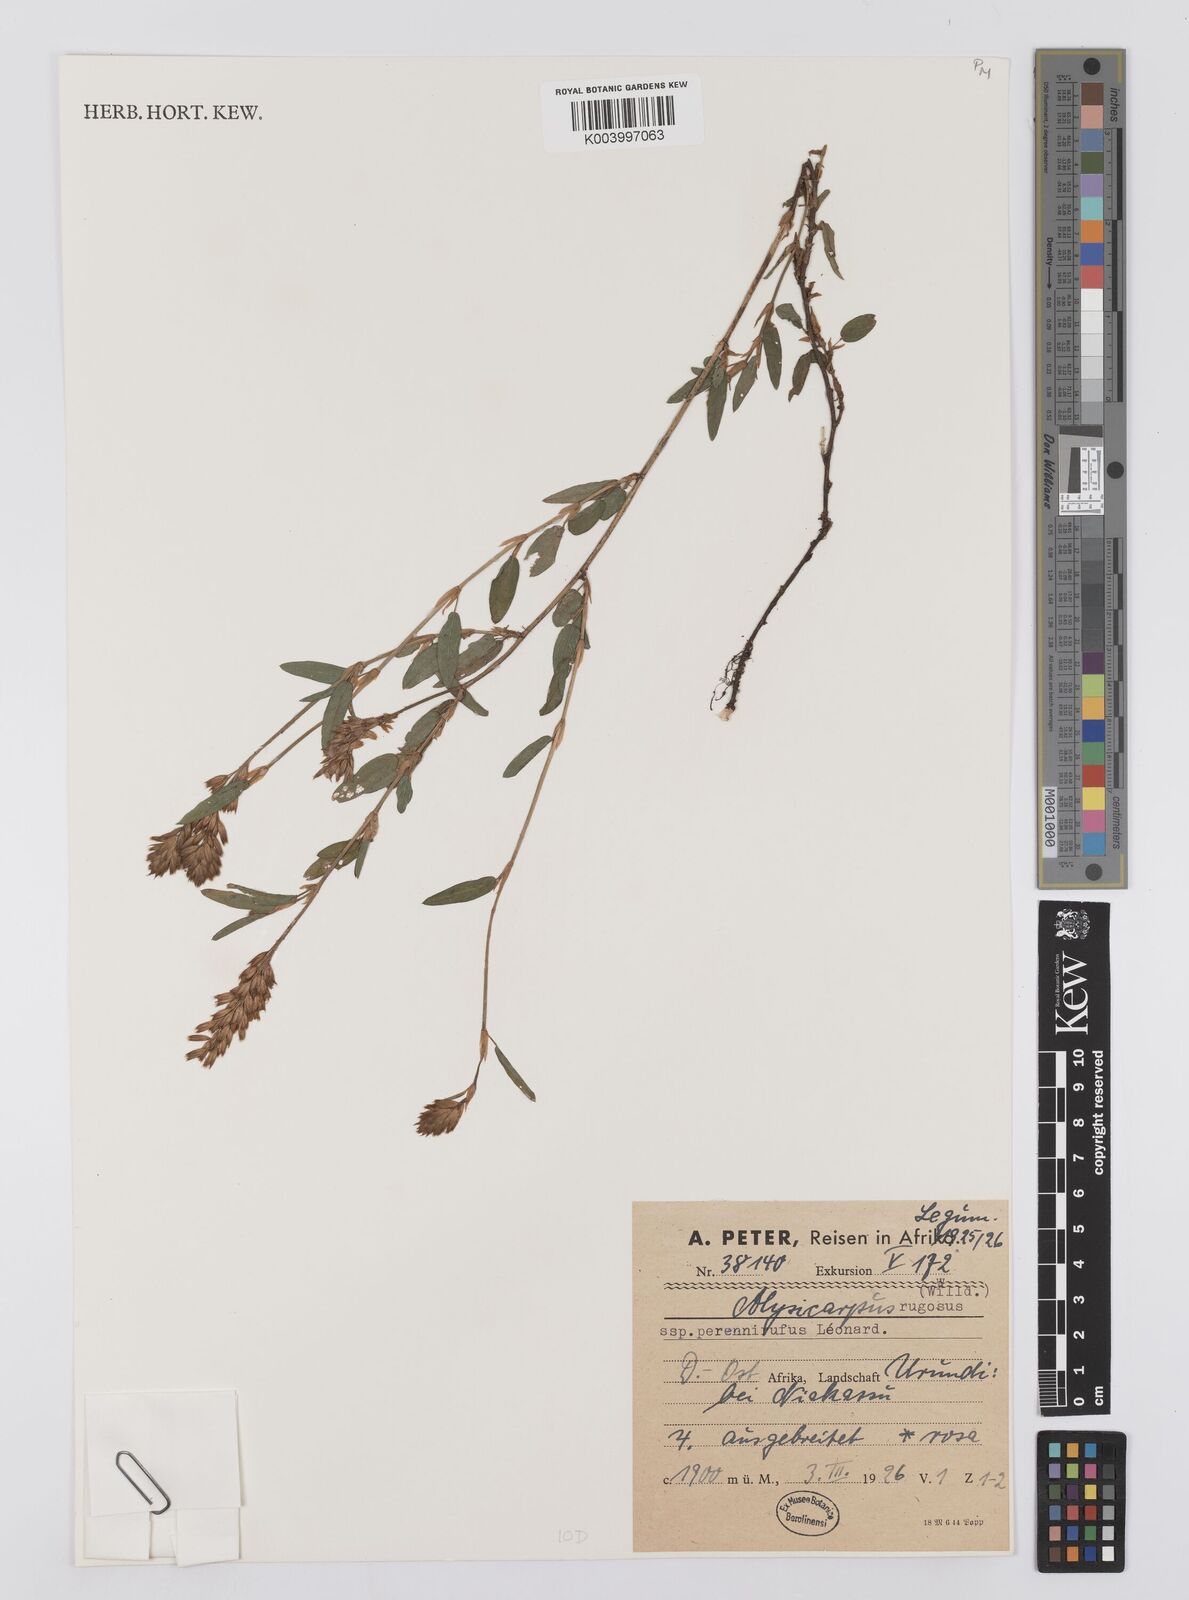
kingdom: Plantae
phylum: Tracheophyta
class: Magnoliopsida
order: Fabales
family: Fabaceae
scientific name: Fabaceae
